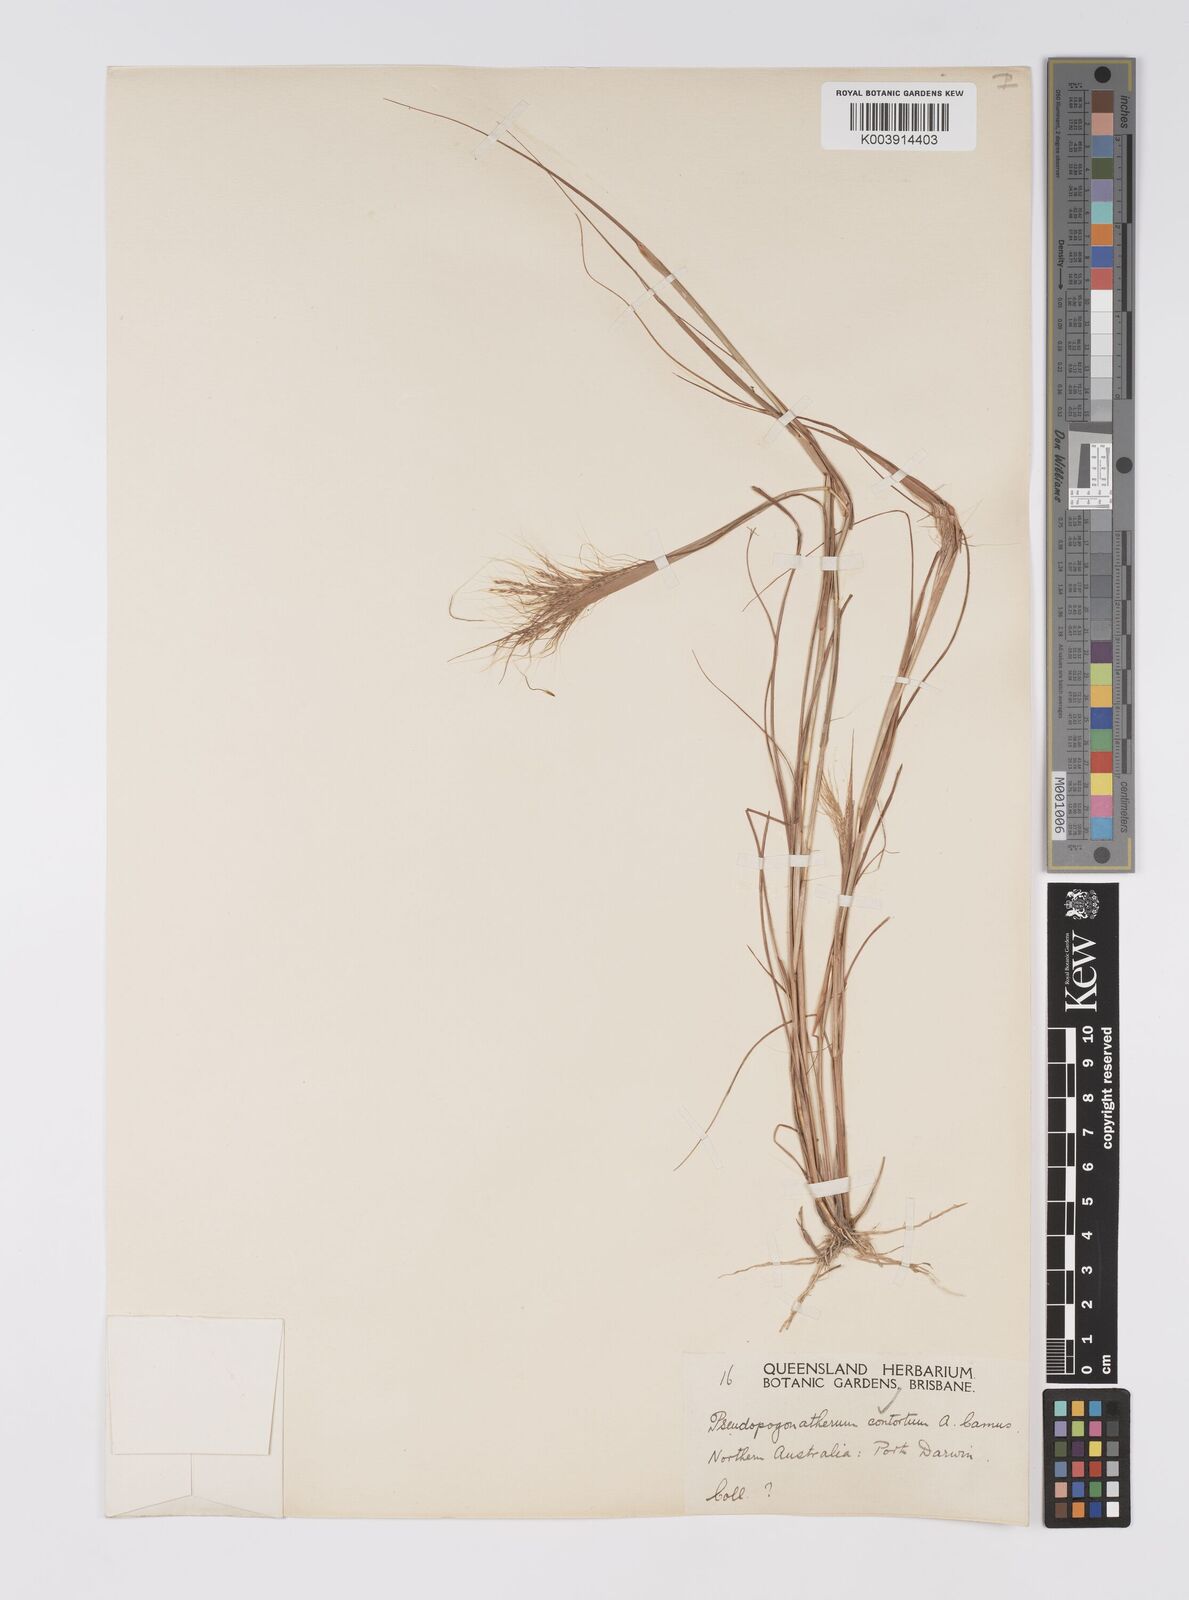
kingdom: Plantae
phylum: Tracheophyta
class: Liliopsida
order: Poales
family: Poaceae
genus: Pseudopogonatherum
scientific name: Pseudopogonatherum contortum
